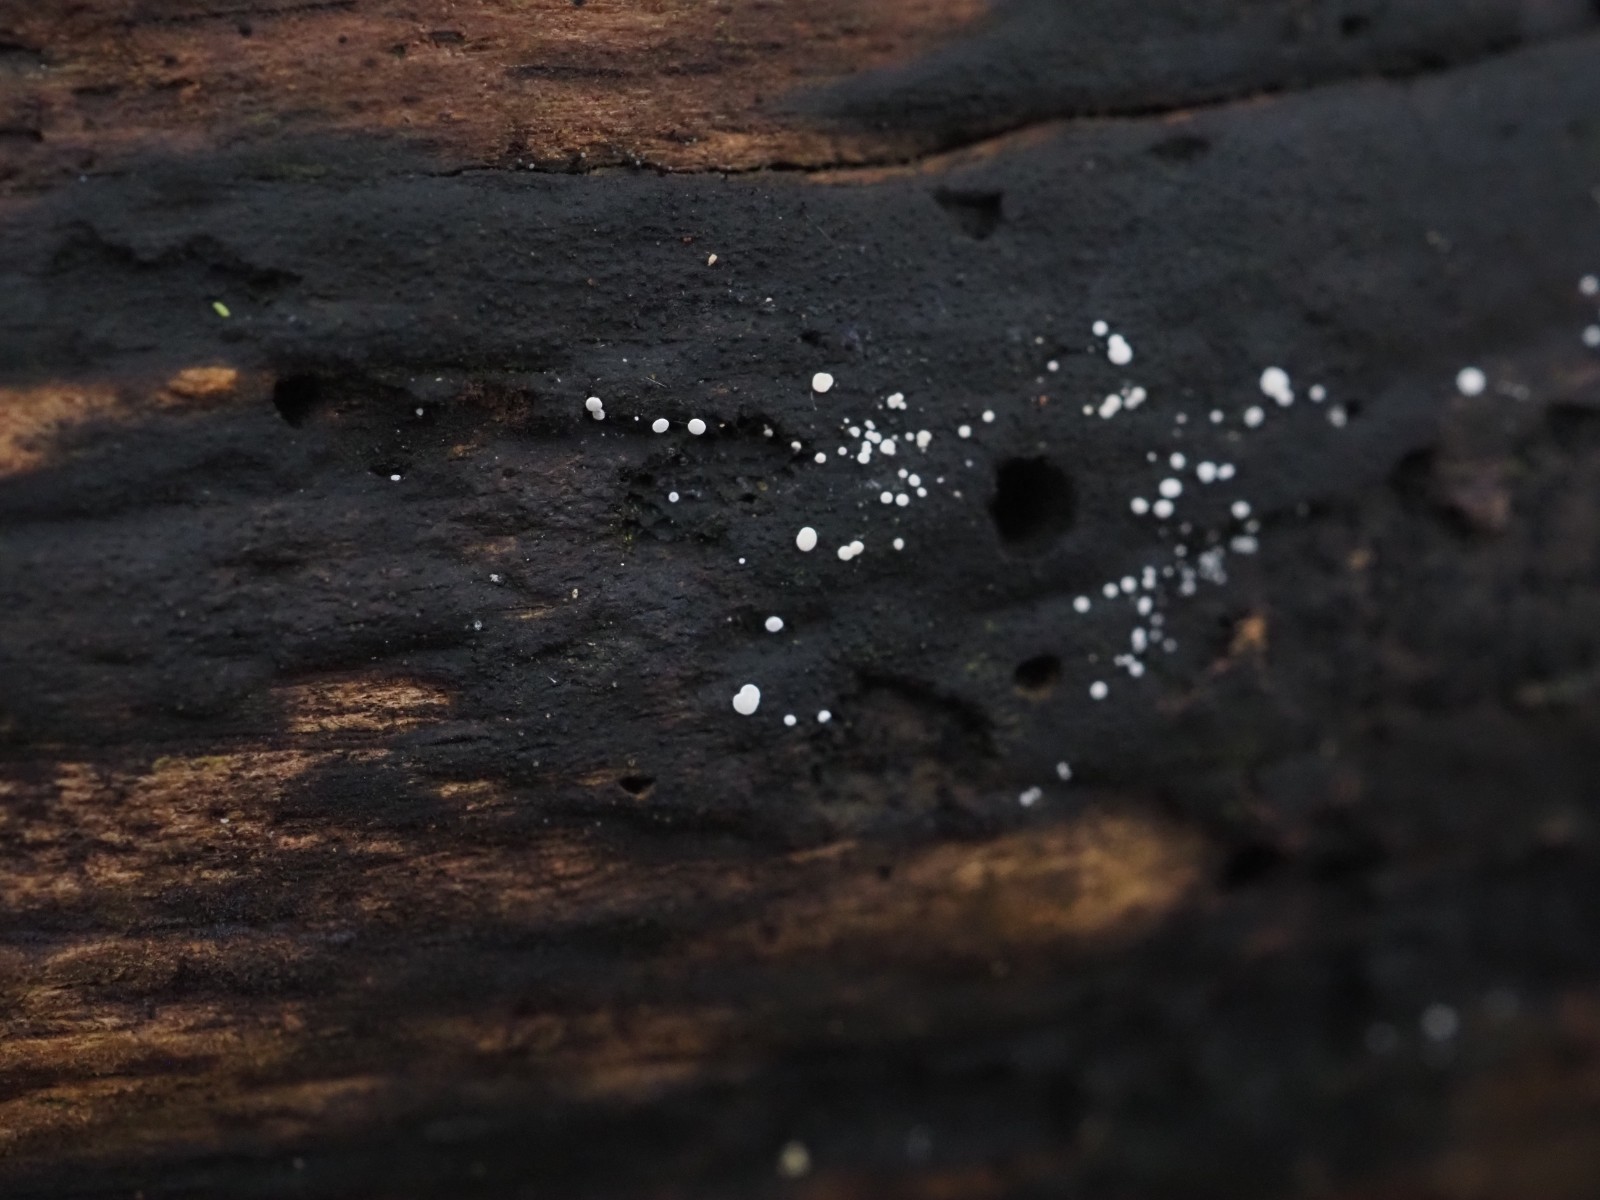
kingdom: Fungi
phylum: Ascomycota
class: Leotiomycetes
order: Helotiales
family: Hyaloscyphaceae
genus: Polydesmia
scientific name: Polydesmia pruinosa
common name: dunskive
